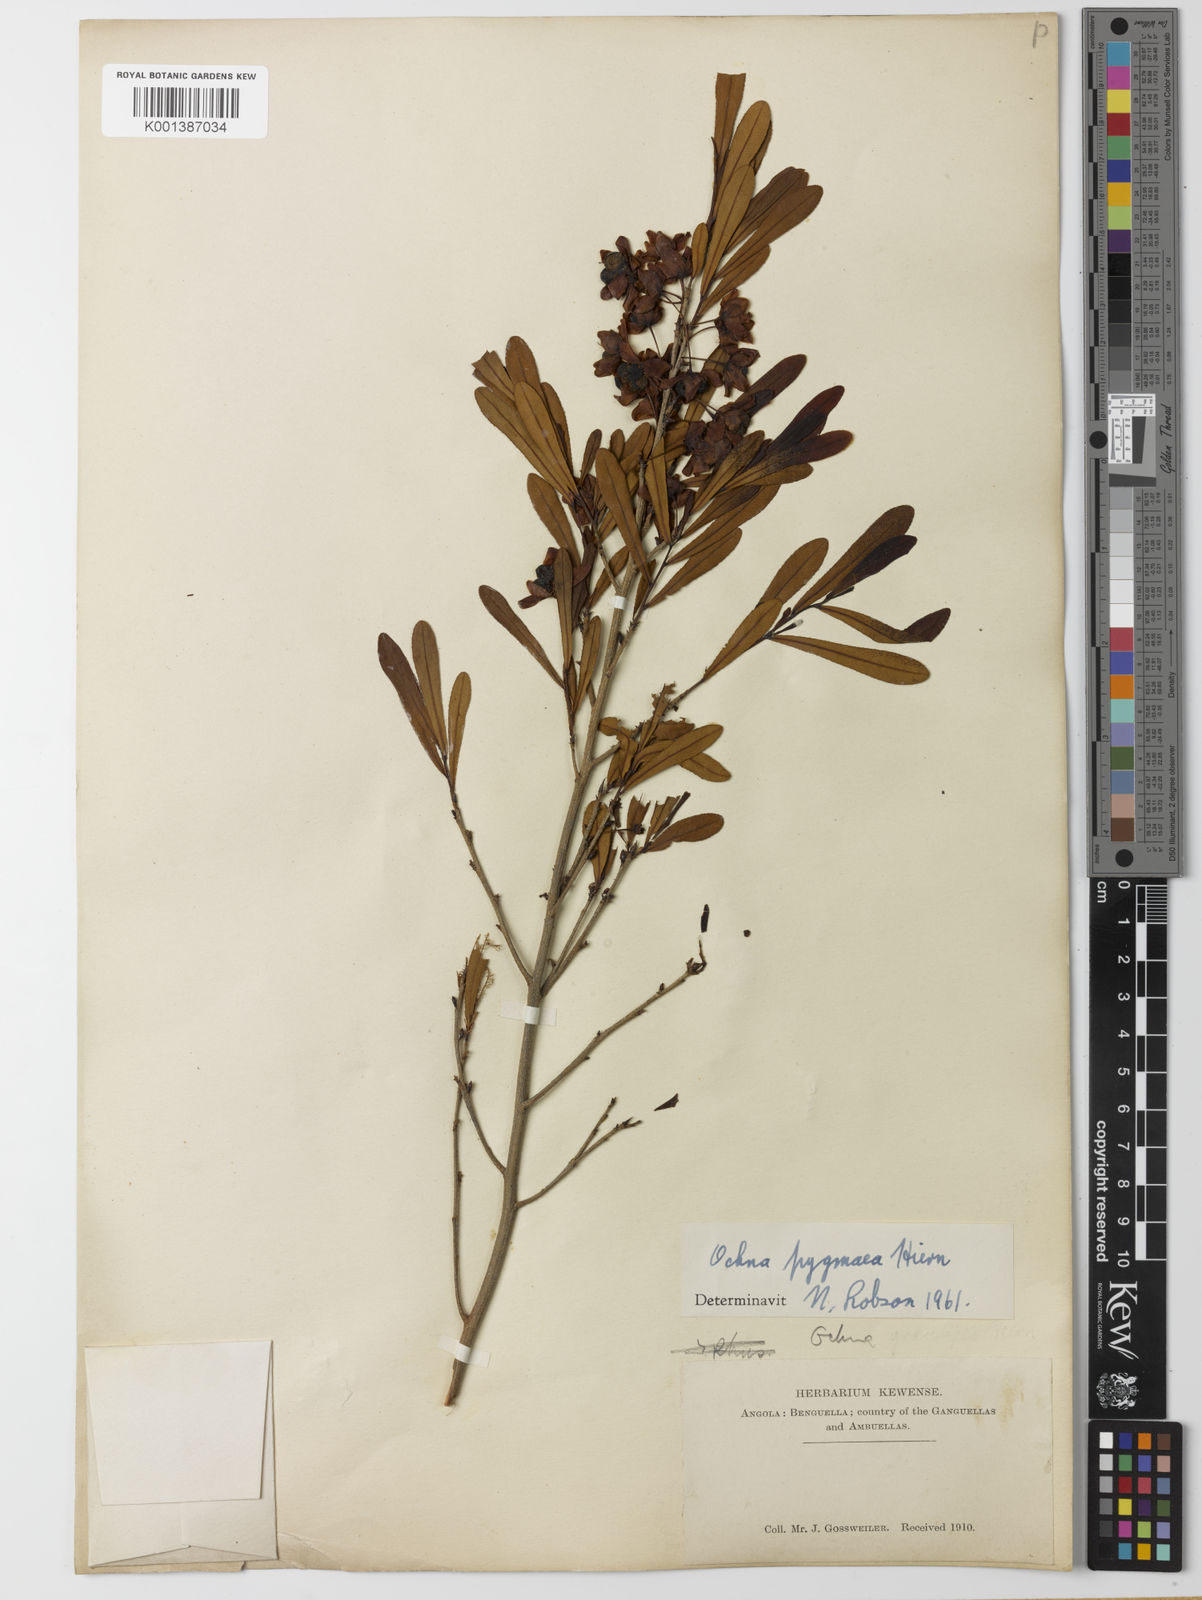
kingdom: Plantae
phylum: Tracheophyta
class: Magnoliopsida
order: Malpighiales
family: Ochnaceae
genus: Ochna
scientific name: Ochna pygmaea
